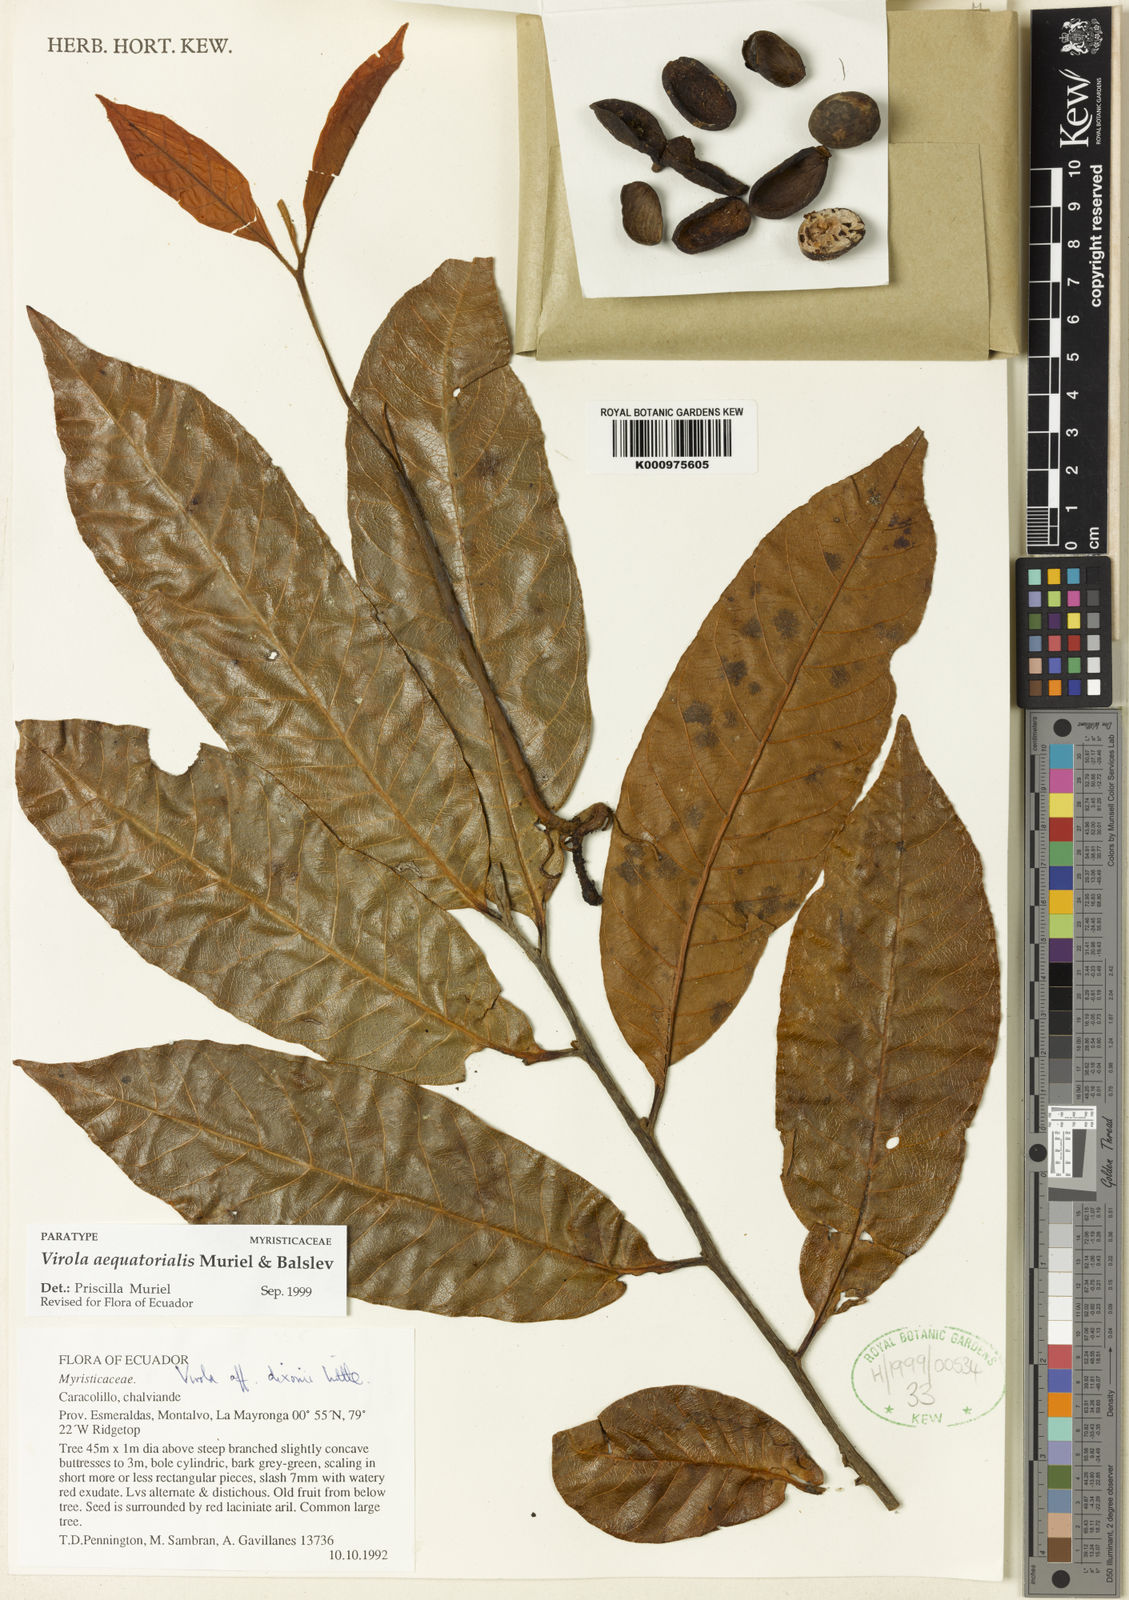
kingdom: Plantae
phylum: Tracheophyta
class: Magnoliopsida
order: Magnoliales
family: Myristicaceae
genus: Virola
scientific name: Virola aequatorialis
